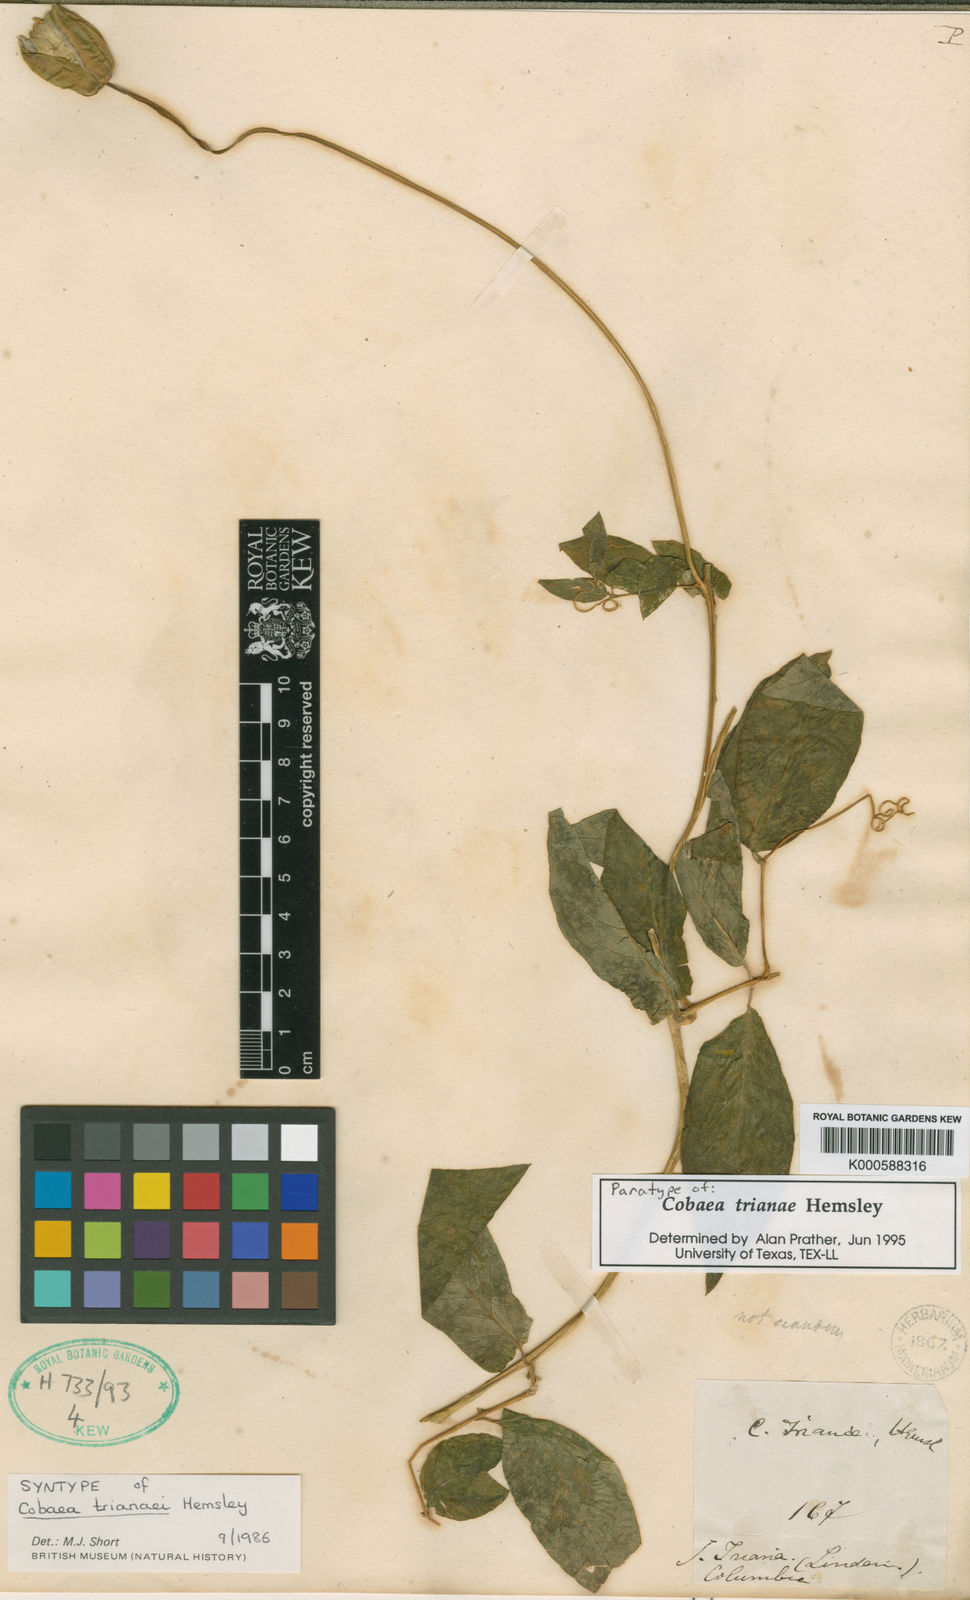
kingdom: Plantae
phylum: Tracheophyta
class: Magnoliopsida
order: Ericales
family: Polemoniaceae
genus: Cobaea
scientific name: Cobaea trianae
